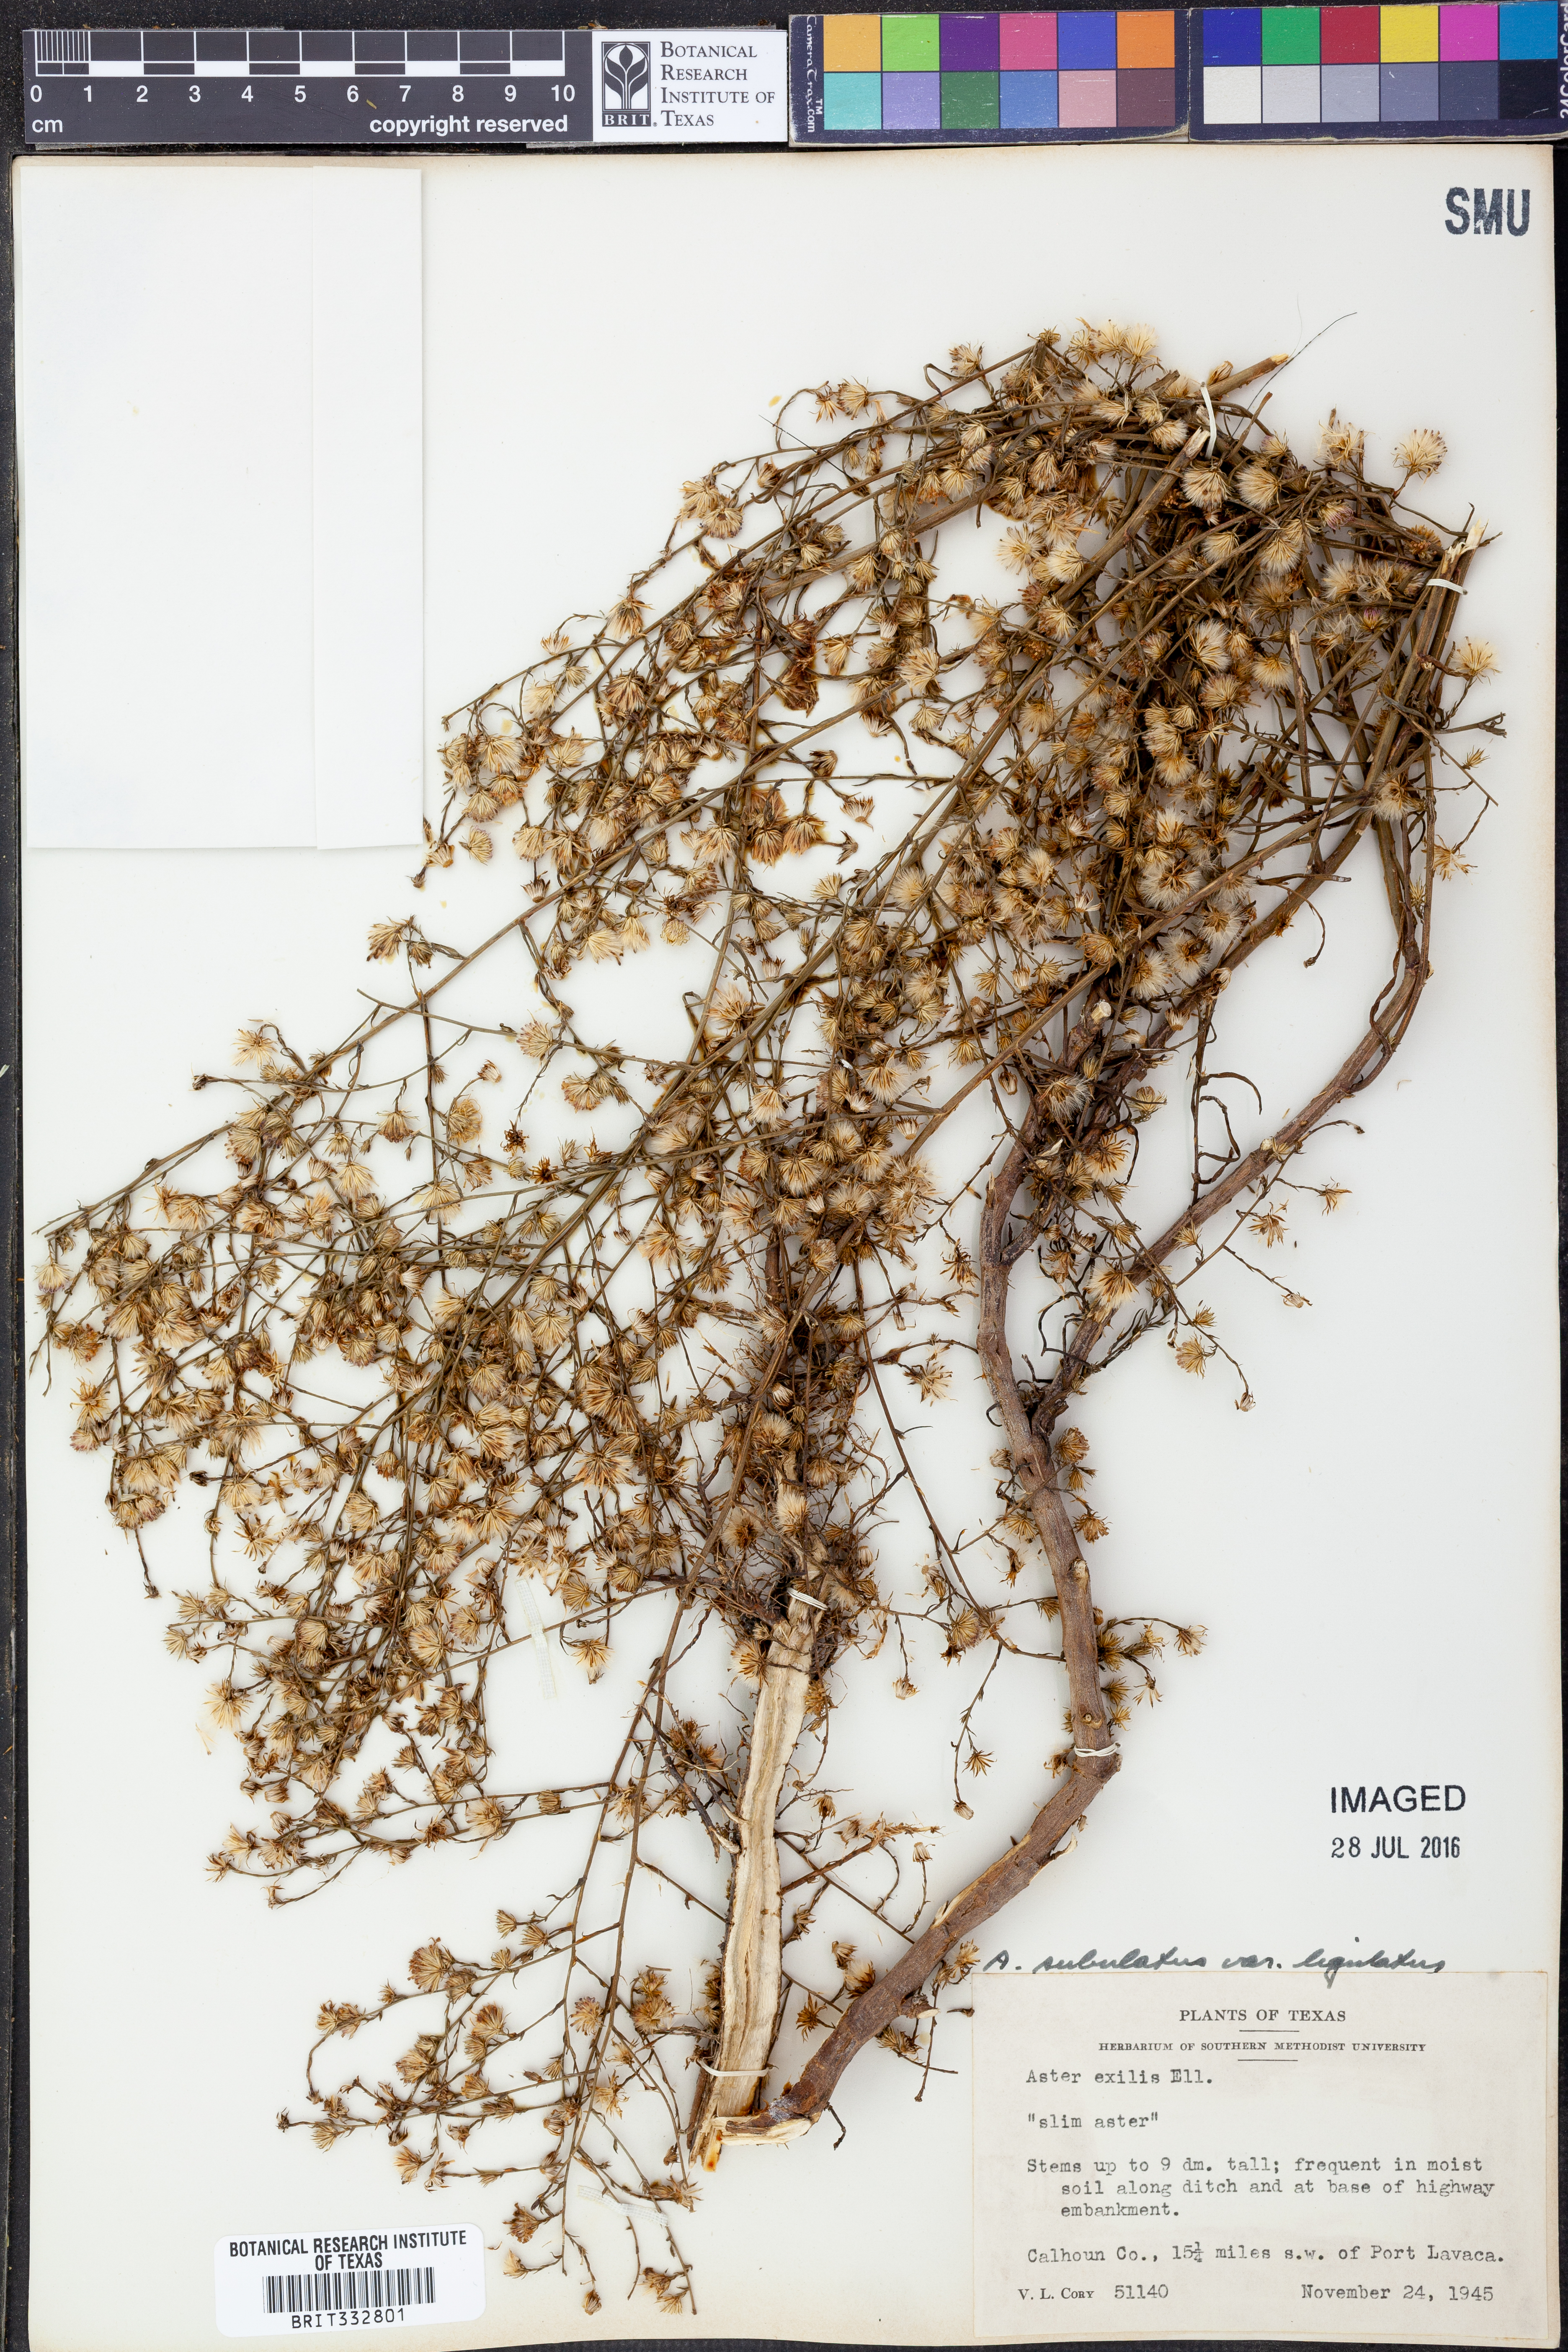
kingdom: Plantae
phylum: Tracheophyta
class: Magnoliopsida
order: Asterales
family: Asteraceae
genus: Symphyotrichum
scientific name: Symphyotrichum divaricatum
